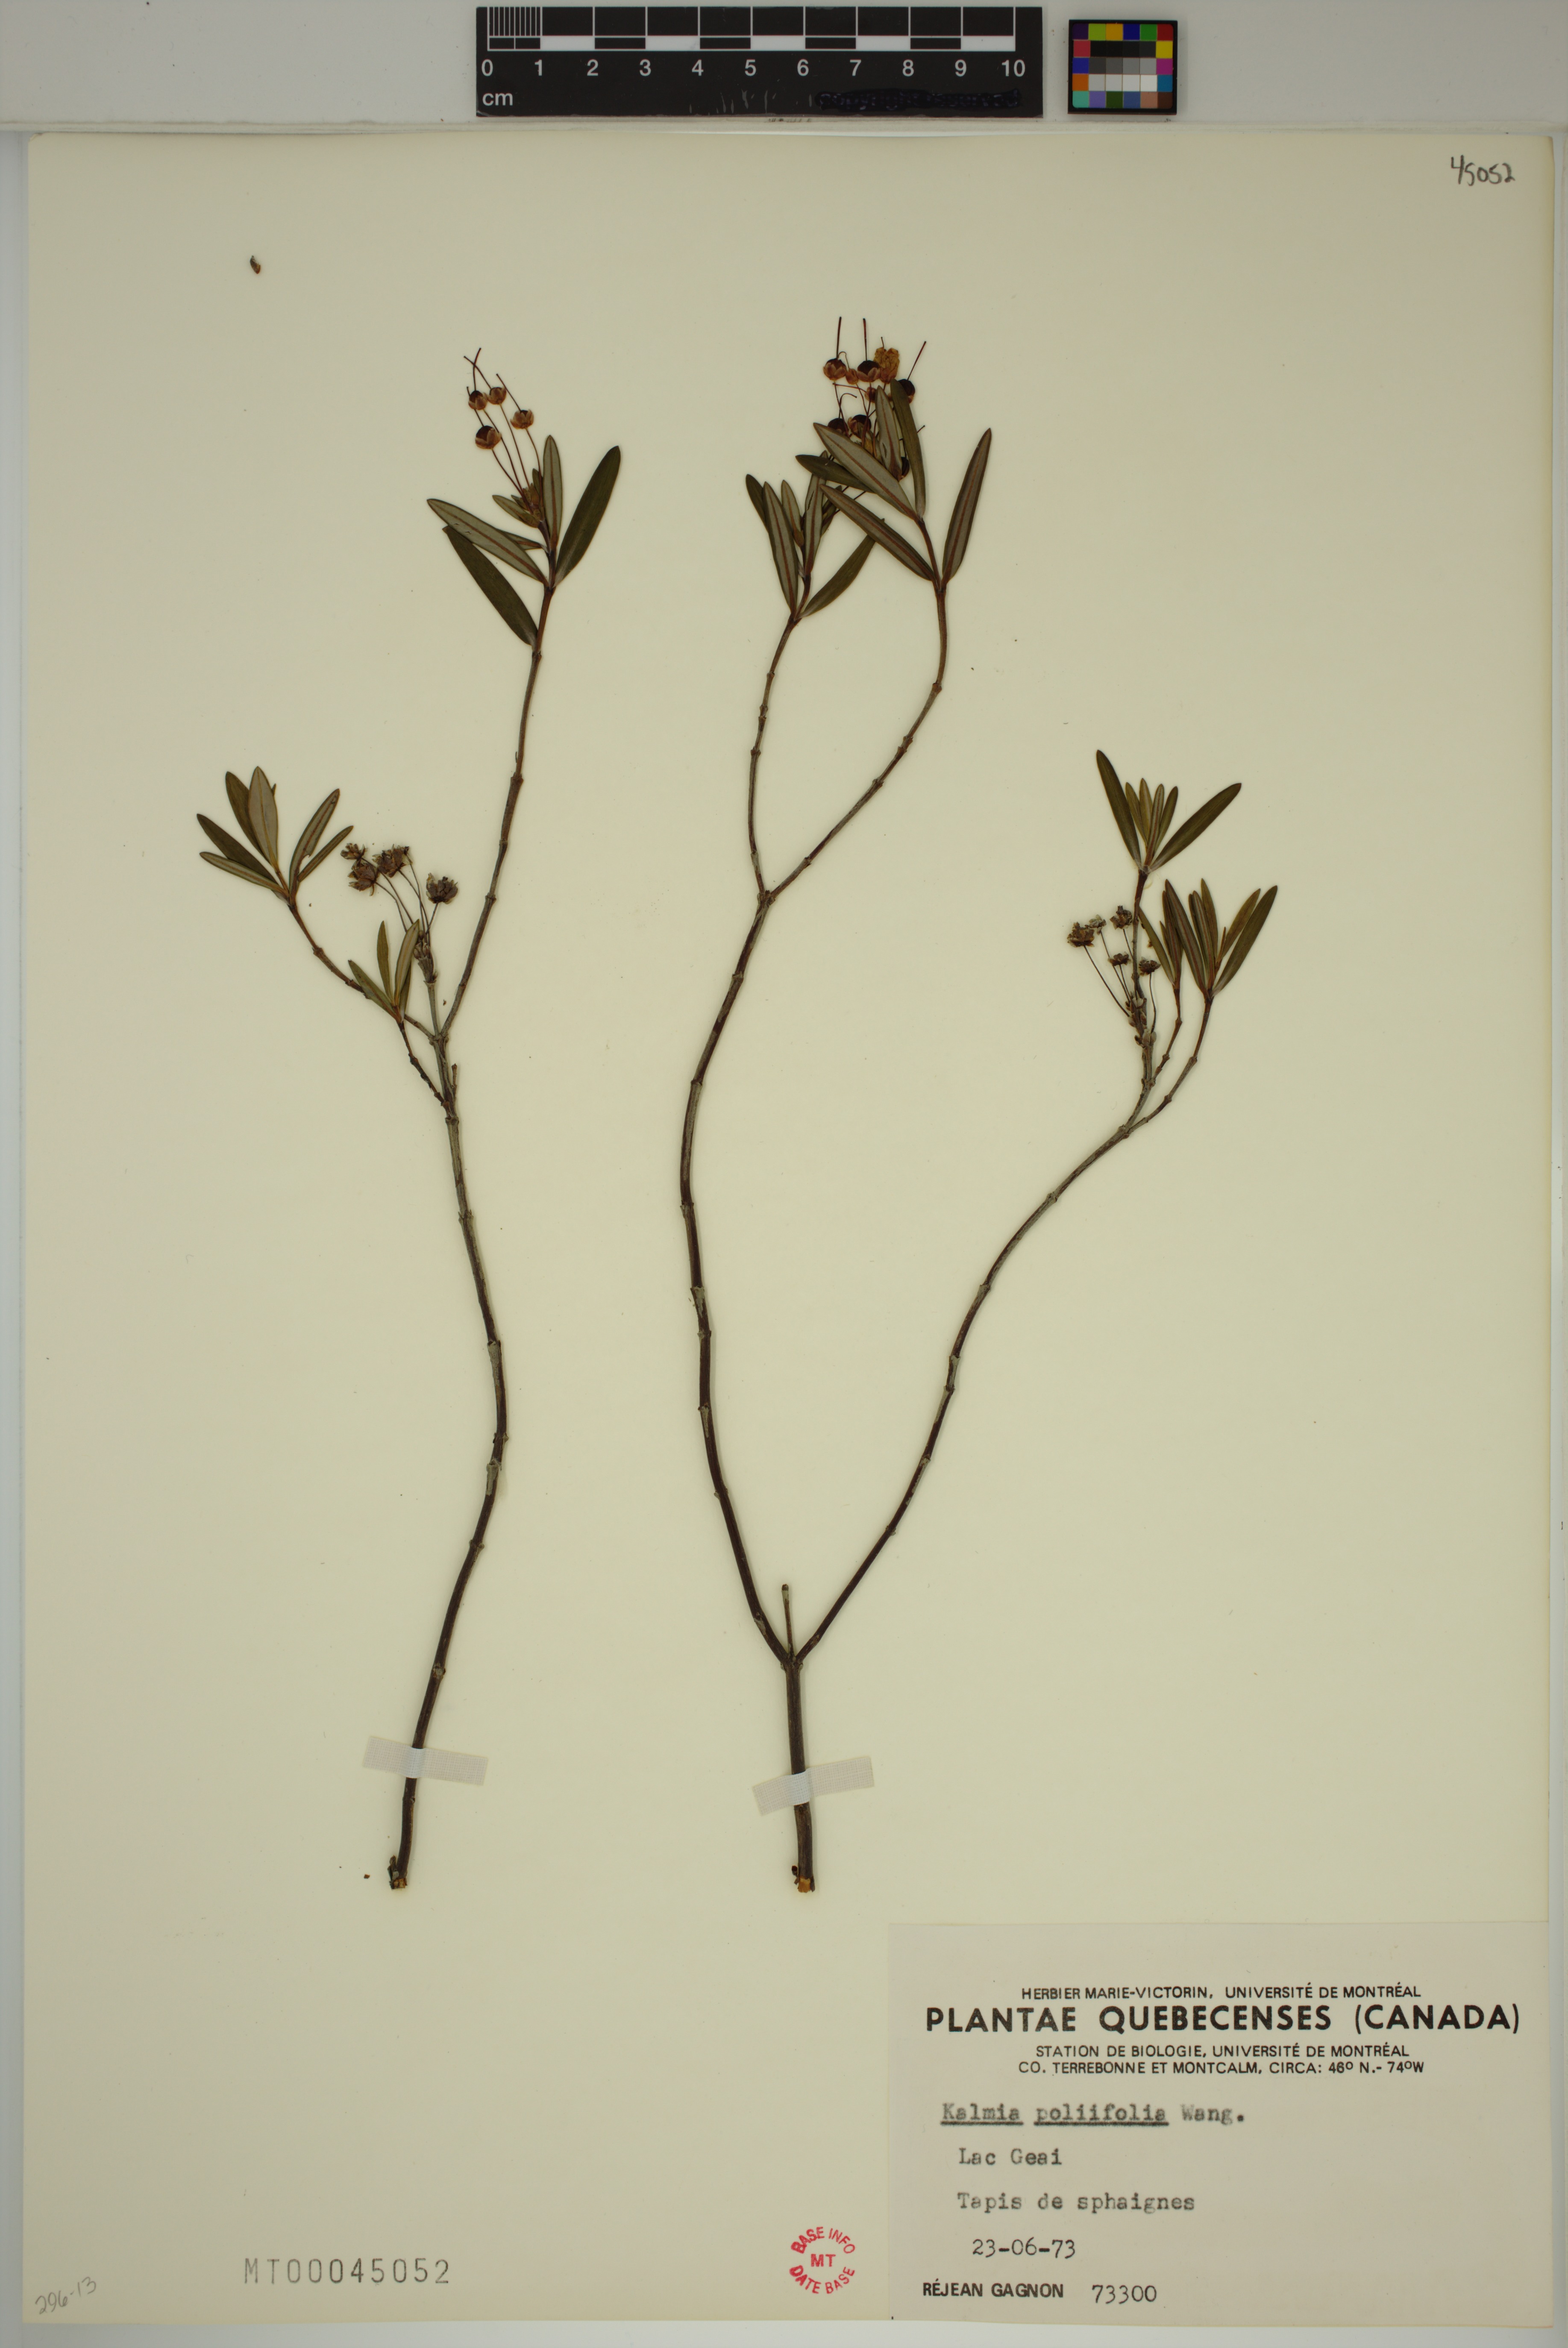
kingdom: Plantae
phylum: Tracheophyta
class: Magnoliopsida
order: Ericales
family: Ericaceae
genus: Kalmia
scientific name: Kalmia polifolia
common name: Bog-laurel
